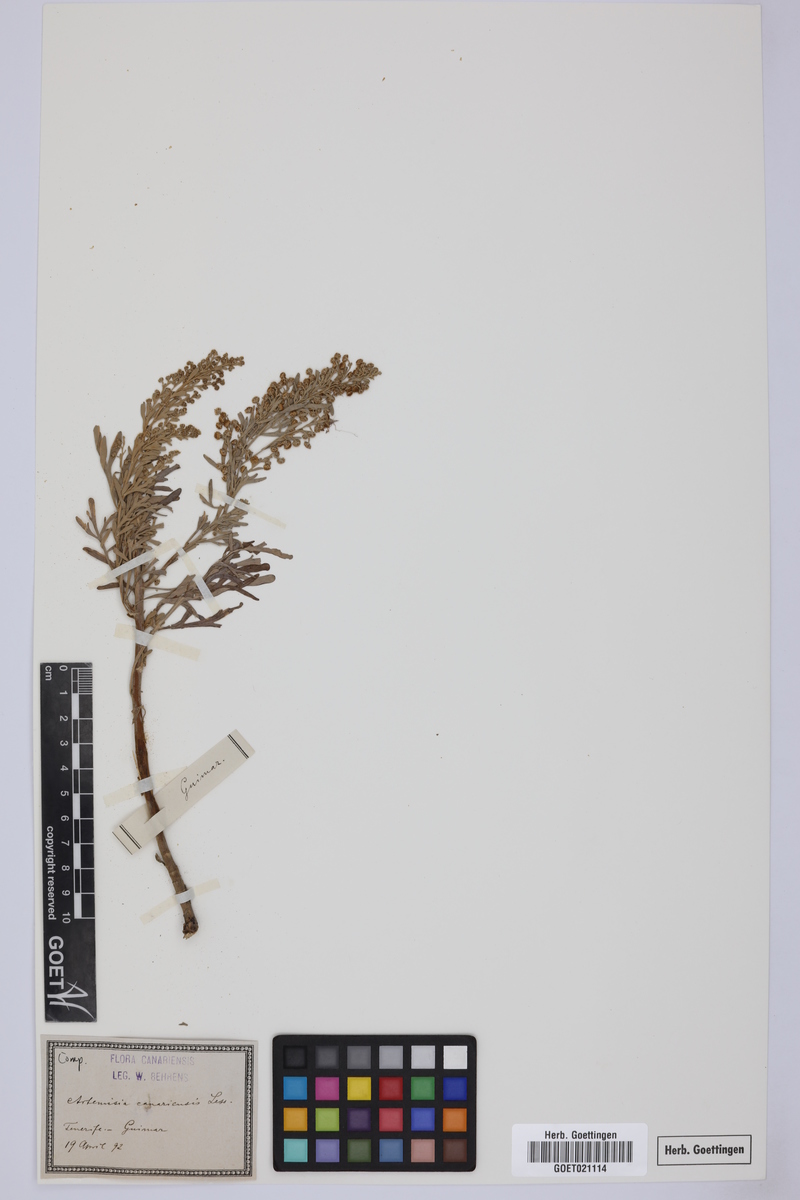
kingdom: Plantae
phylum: Tracheophyta
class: Magnoliopsida
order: Asterales
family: Asteraceae
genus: Artemisia
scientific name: Artemisia thuscula
